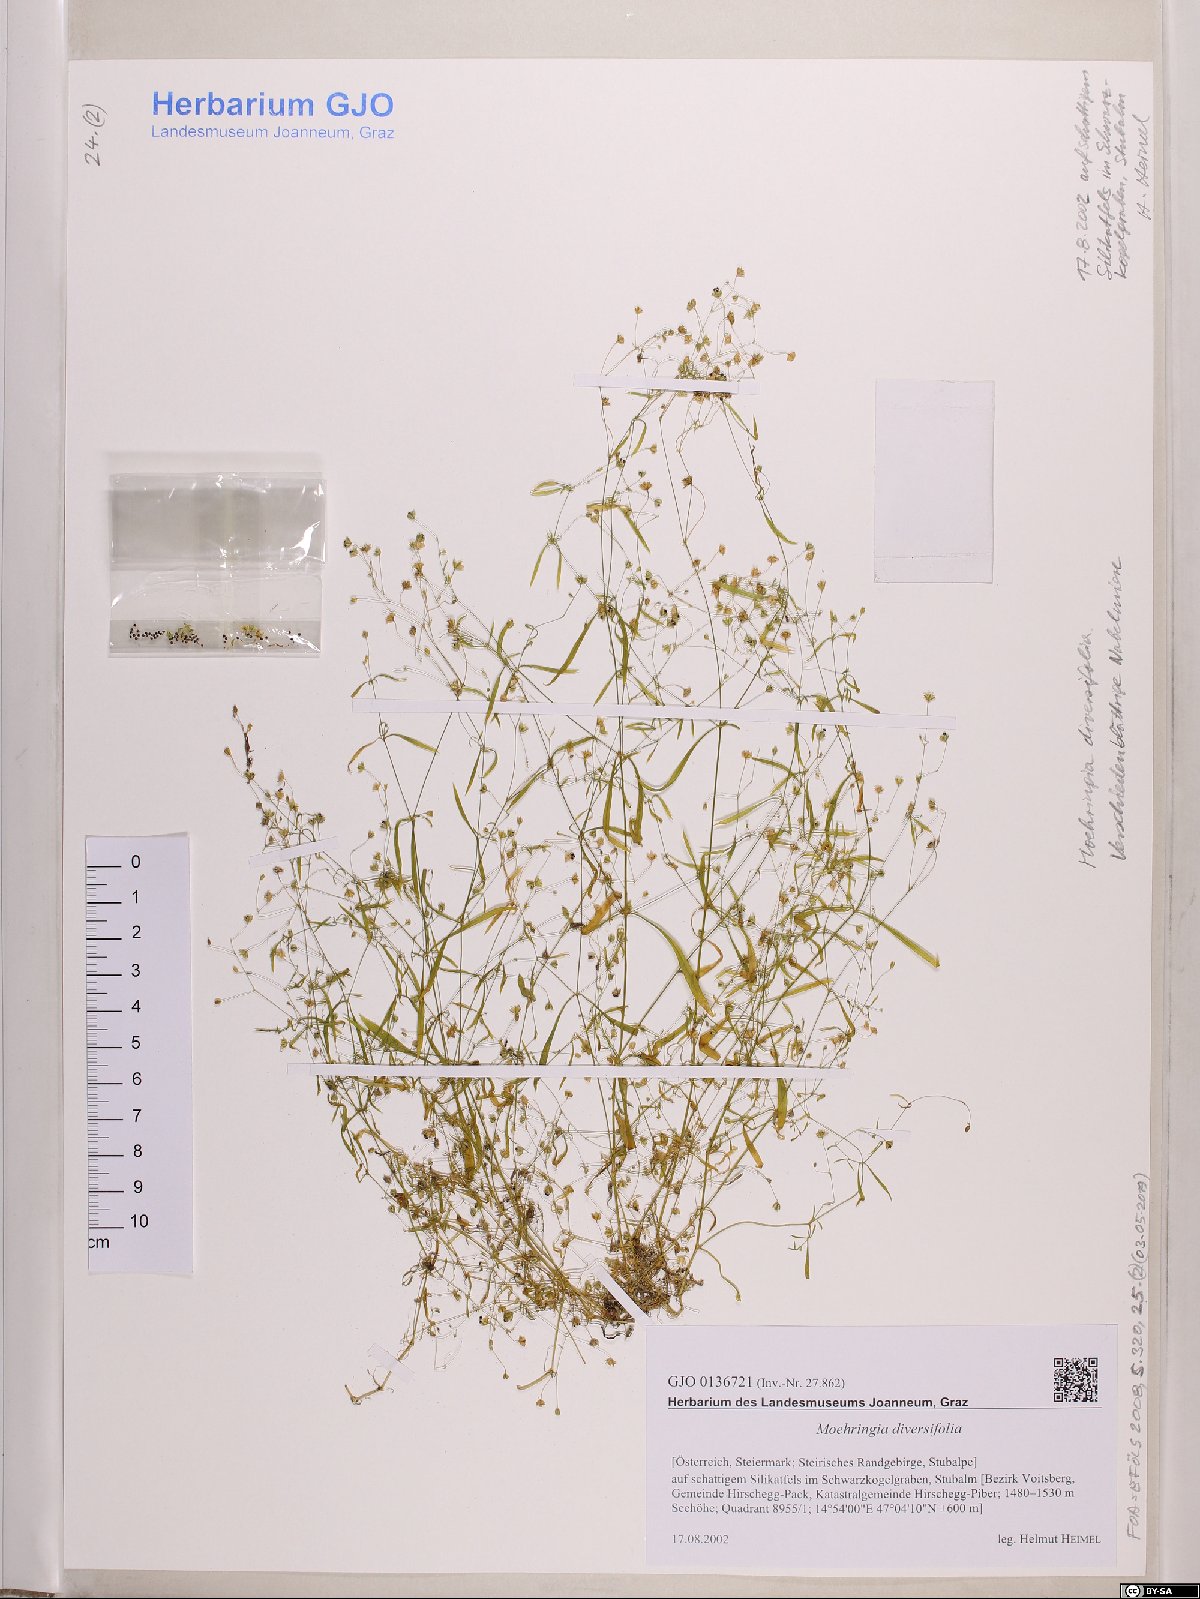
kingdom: Plantae
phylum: Tracheophyta
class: Magnoliopsida
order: Caryophyllales
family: Caryophyllaceae
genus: Moehringia
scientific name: Moehringia diversifolia
